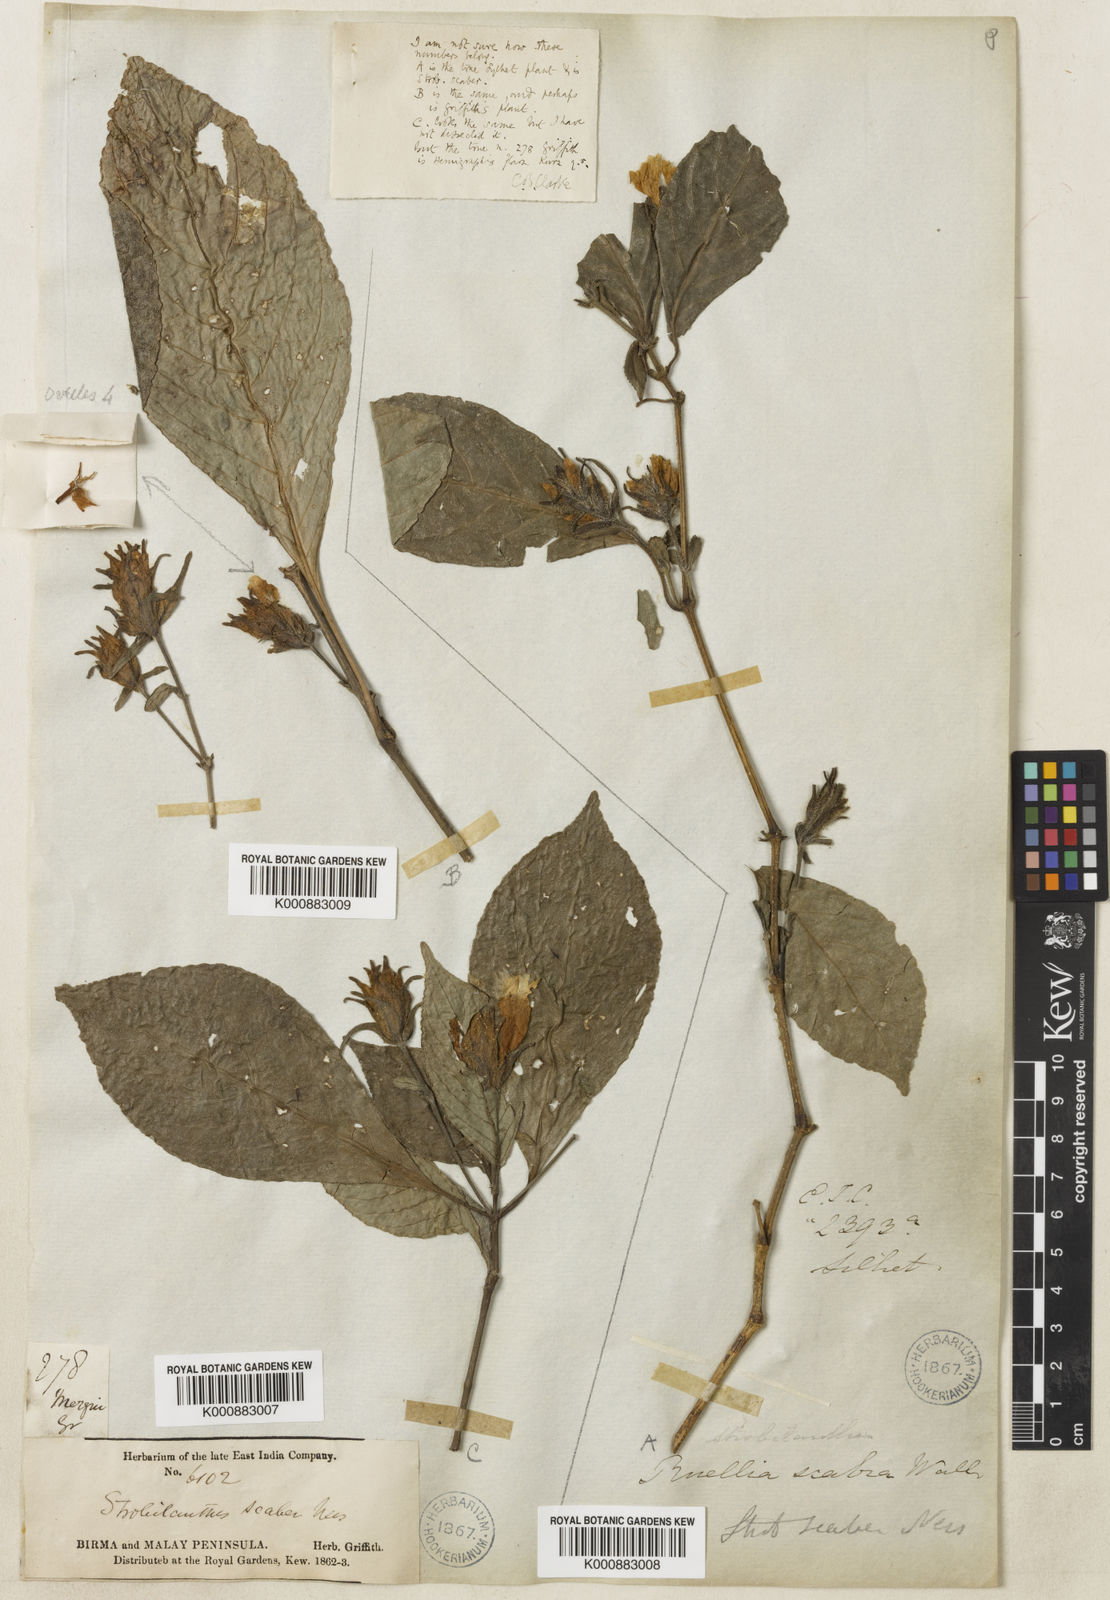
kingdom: Plantae
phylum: Tracheophyta
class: Magnoliopsida
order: Lamiales
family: Acanthaceae
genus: Strobilanthes
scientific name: Strobilanthes
